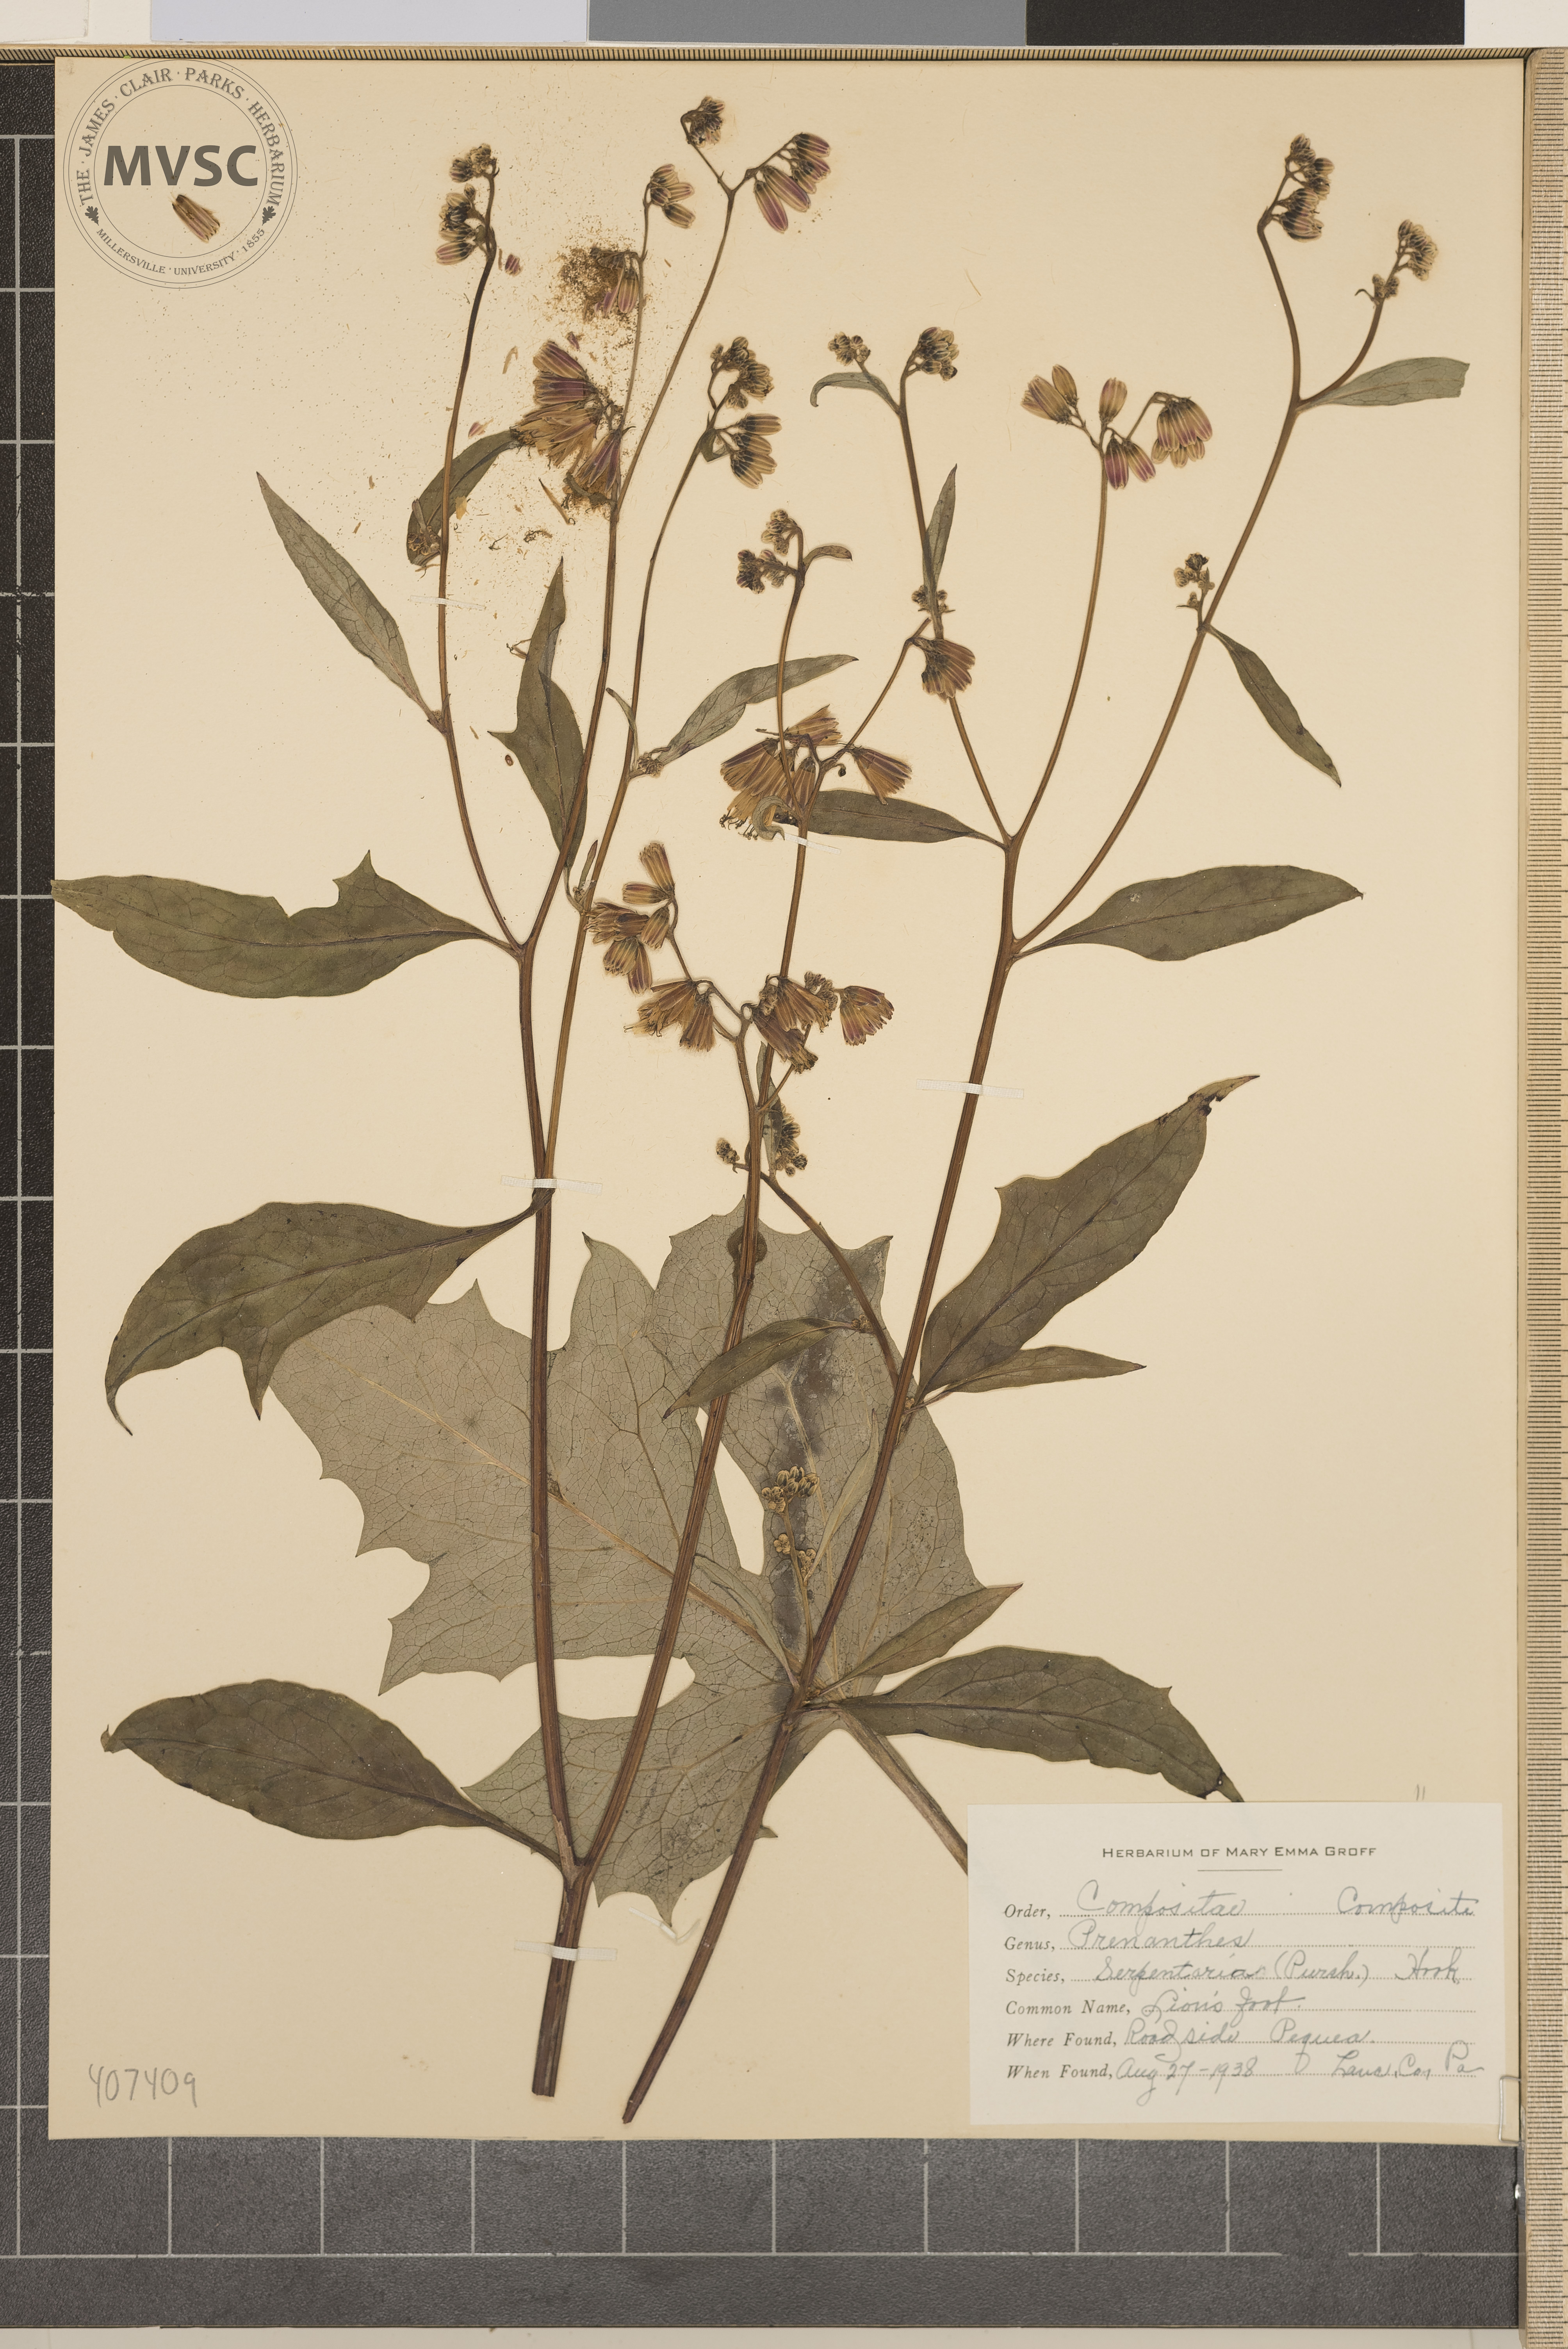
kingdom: Plantae
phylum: Tracheophyta
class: Magnoliopsida
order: Asterales
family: Asteraceae
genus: Nabalus
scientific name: Nabalus serpentarius
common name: Lion's Foot
